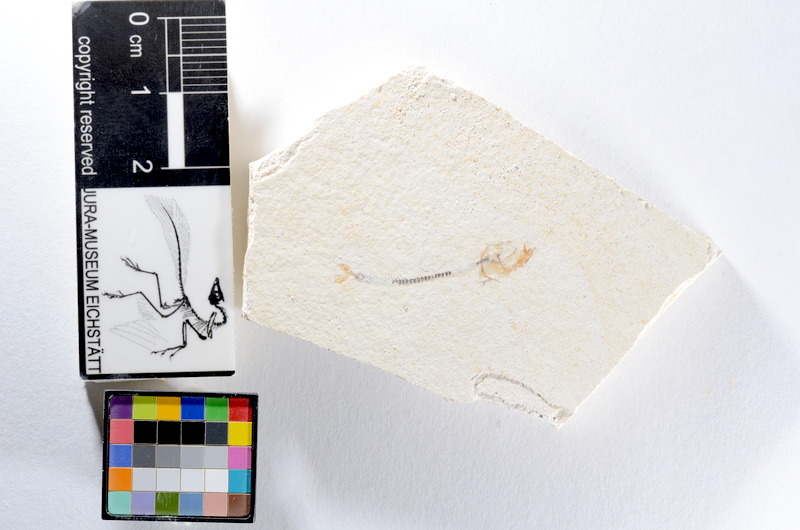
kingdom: Animalia
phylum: Chordata
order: Salmoniformes
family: Orthogonikleithridae
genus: Orthogonikleithrus
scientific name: Orthogonikleithrus hoelli
